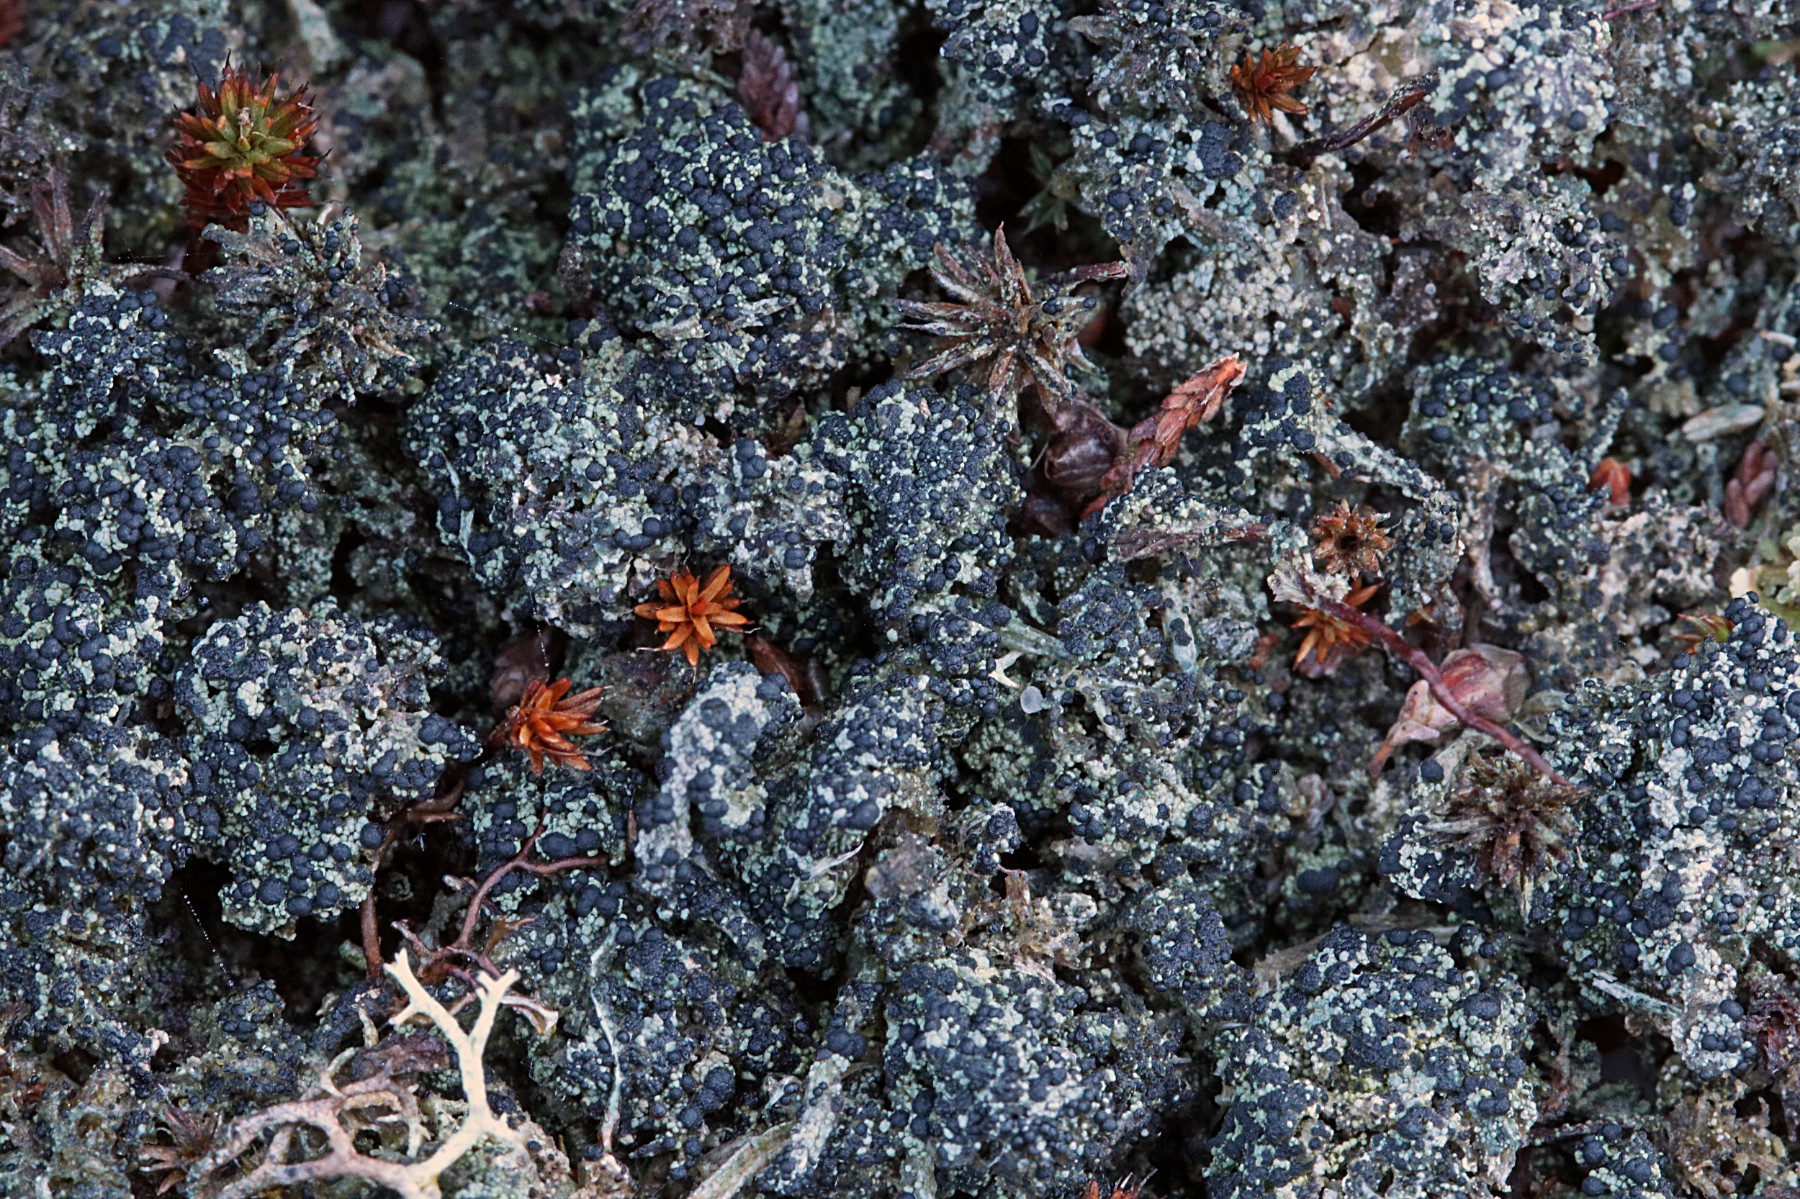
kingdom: Fungi
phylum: Ascomycota
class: Lecanoromycetes
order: Lecanorales
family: Byssolomataceae
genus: Micarea
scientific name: Micarea lignaria
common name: tørve-knaplav
